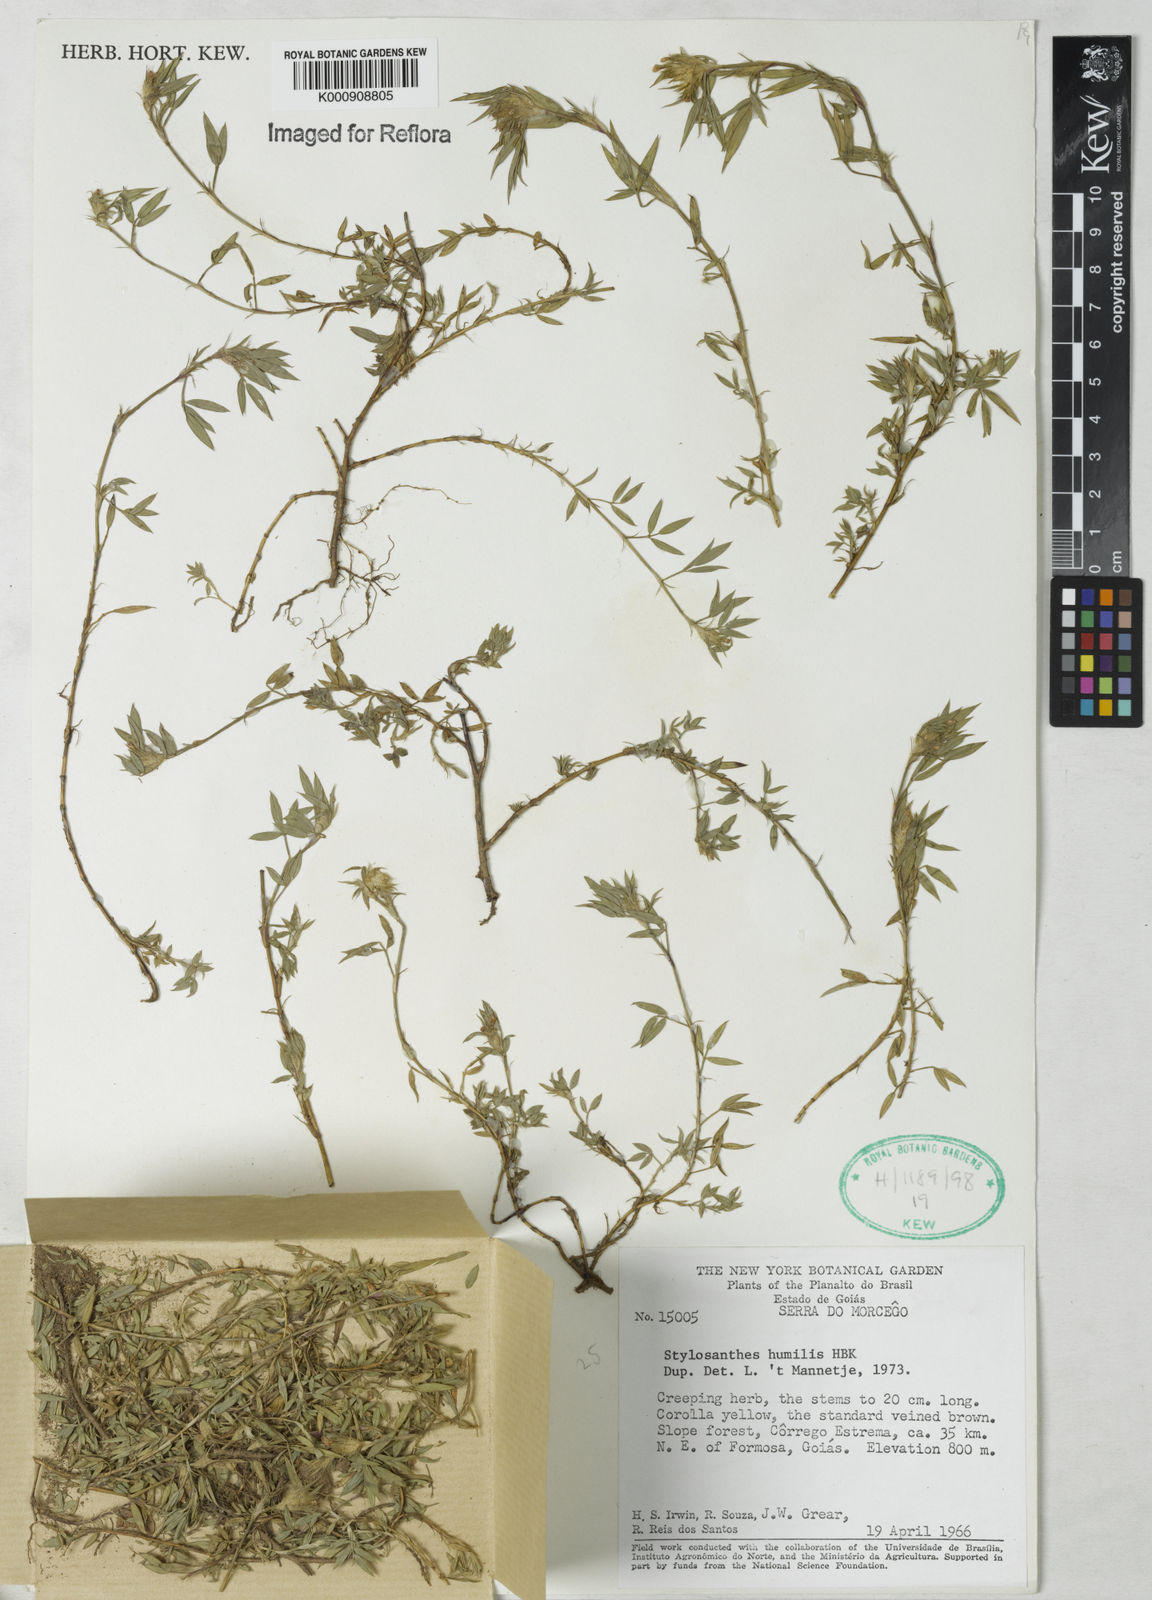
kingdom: Plantae
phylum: Tracheophyta
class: Magnoliopsida
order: Fabales
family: Fabaceae
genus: Stylosanthes
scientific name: Stylosanthes humilis
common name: Townsville stylo
